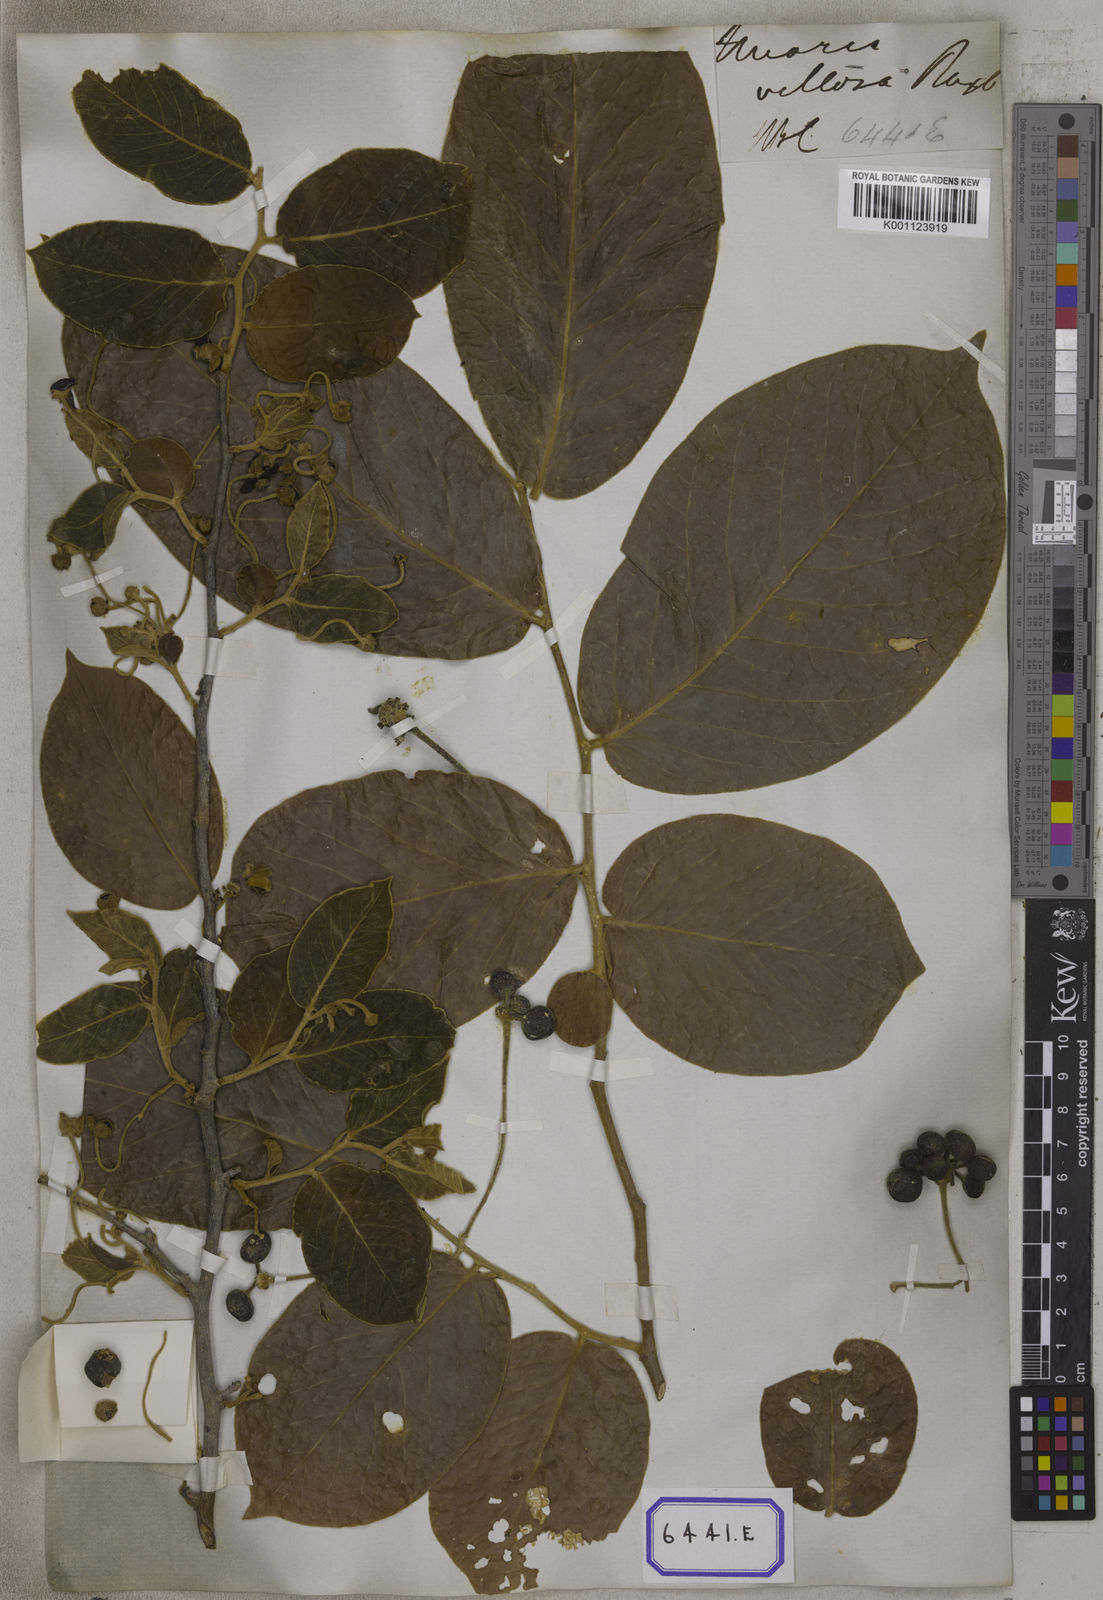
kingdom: Plantae
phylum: Tracheophyta
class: Magnoliopsida
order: Magnoliales
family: Annonaceae
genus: Miliusa
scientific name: Miliusa velutina
